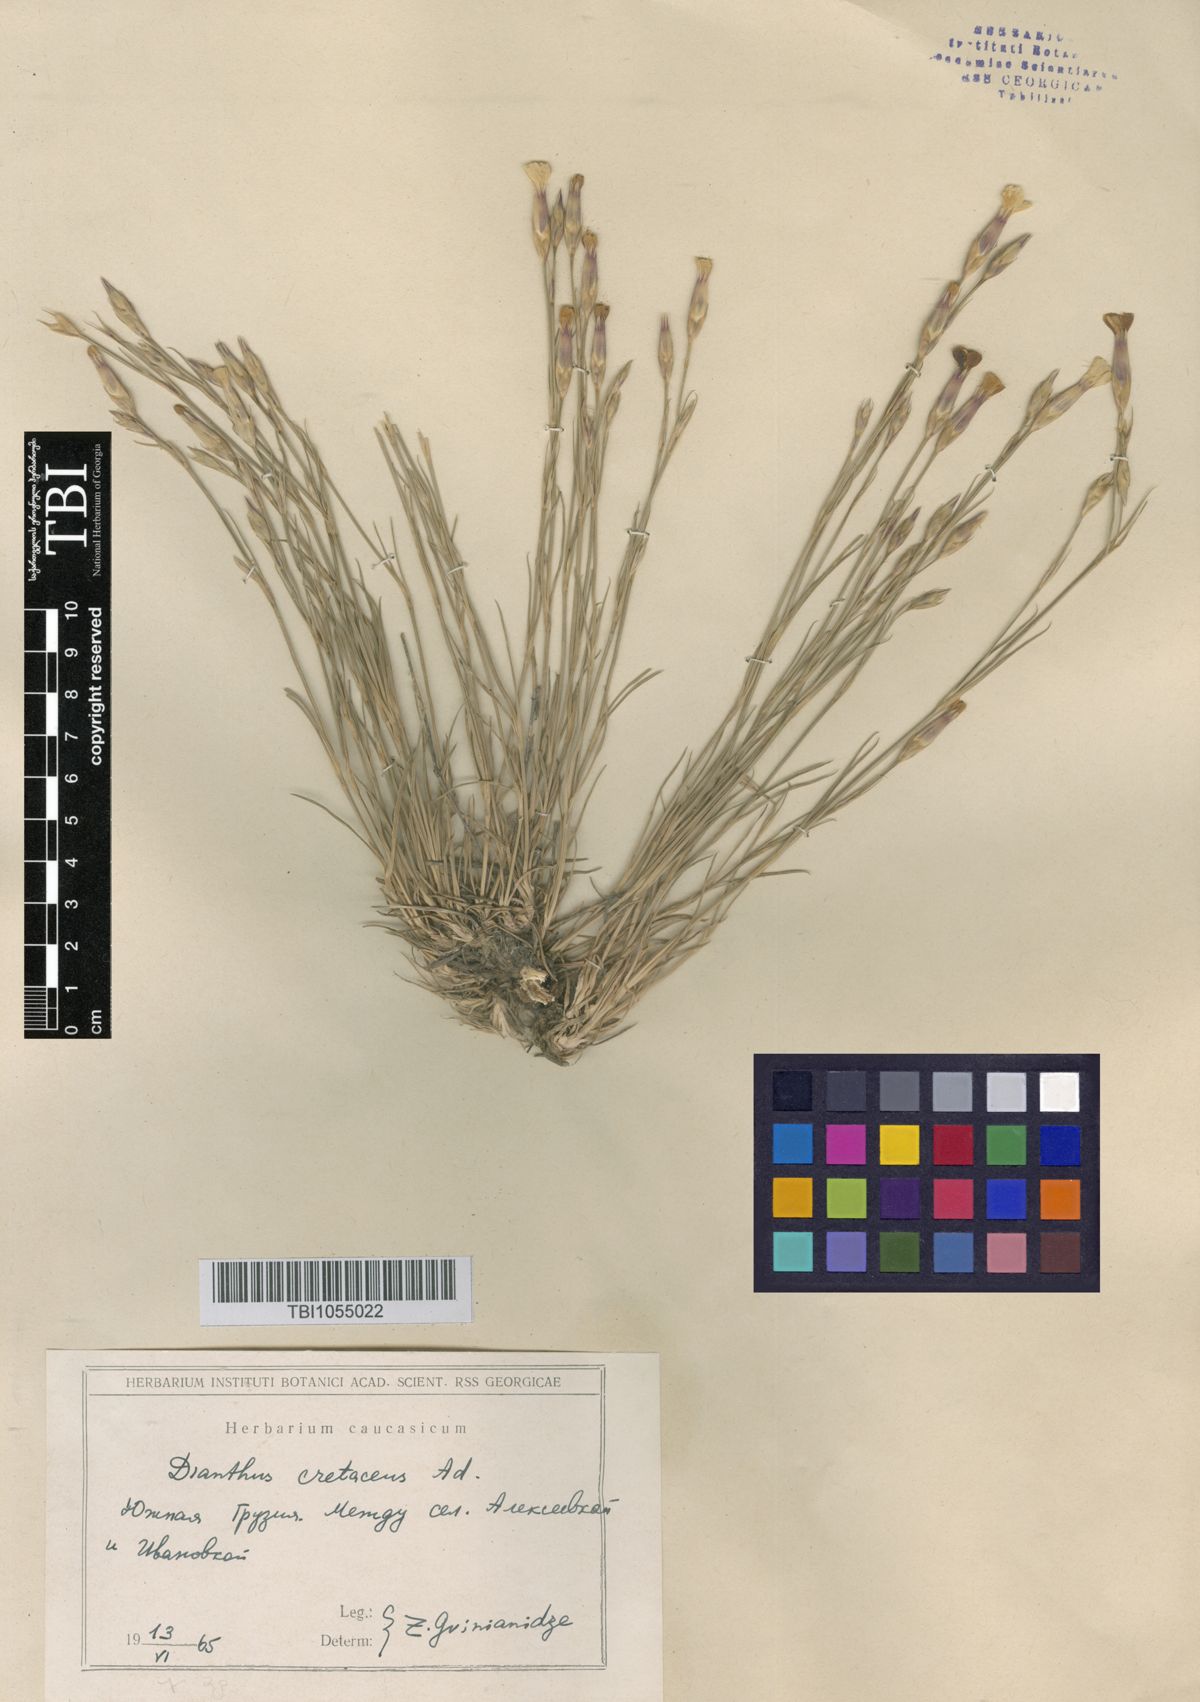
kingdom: Plantae
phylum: Tracheophyta
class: Magnoliopsida
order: Caryophyllales
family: Caryophyllaceae
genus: Dianthus
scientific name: Dianthus cretaceus
